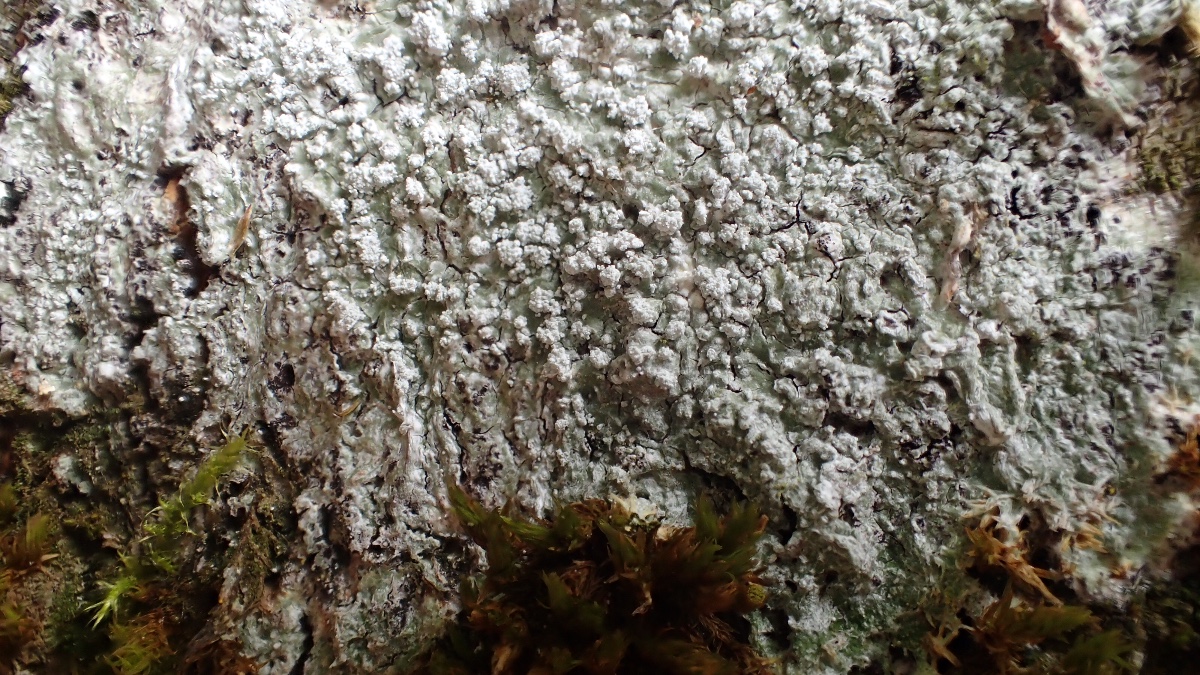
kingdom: Fungi
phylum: Ascomycota
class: Lecanoromycetes
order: Pertusariales
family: Pertusariaceae
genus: Lepra
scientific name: Lepra amara
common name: bitter prikvortelav
